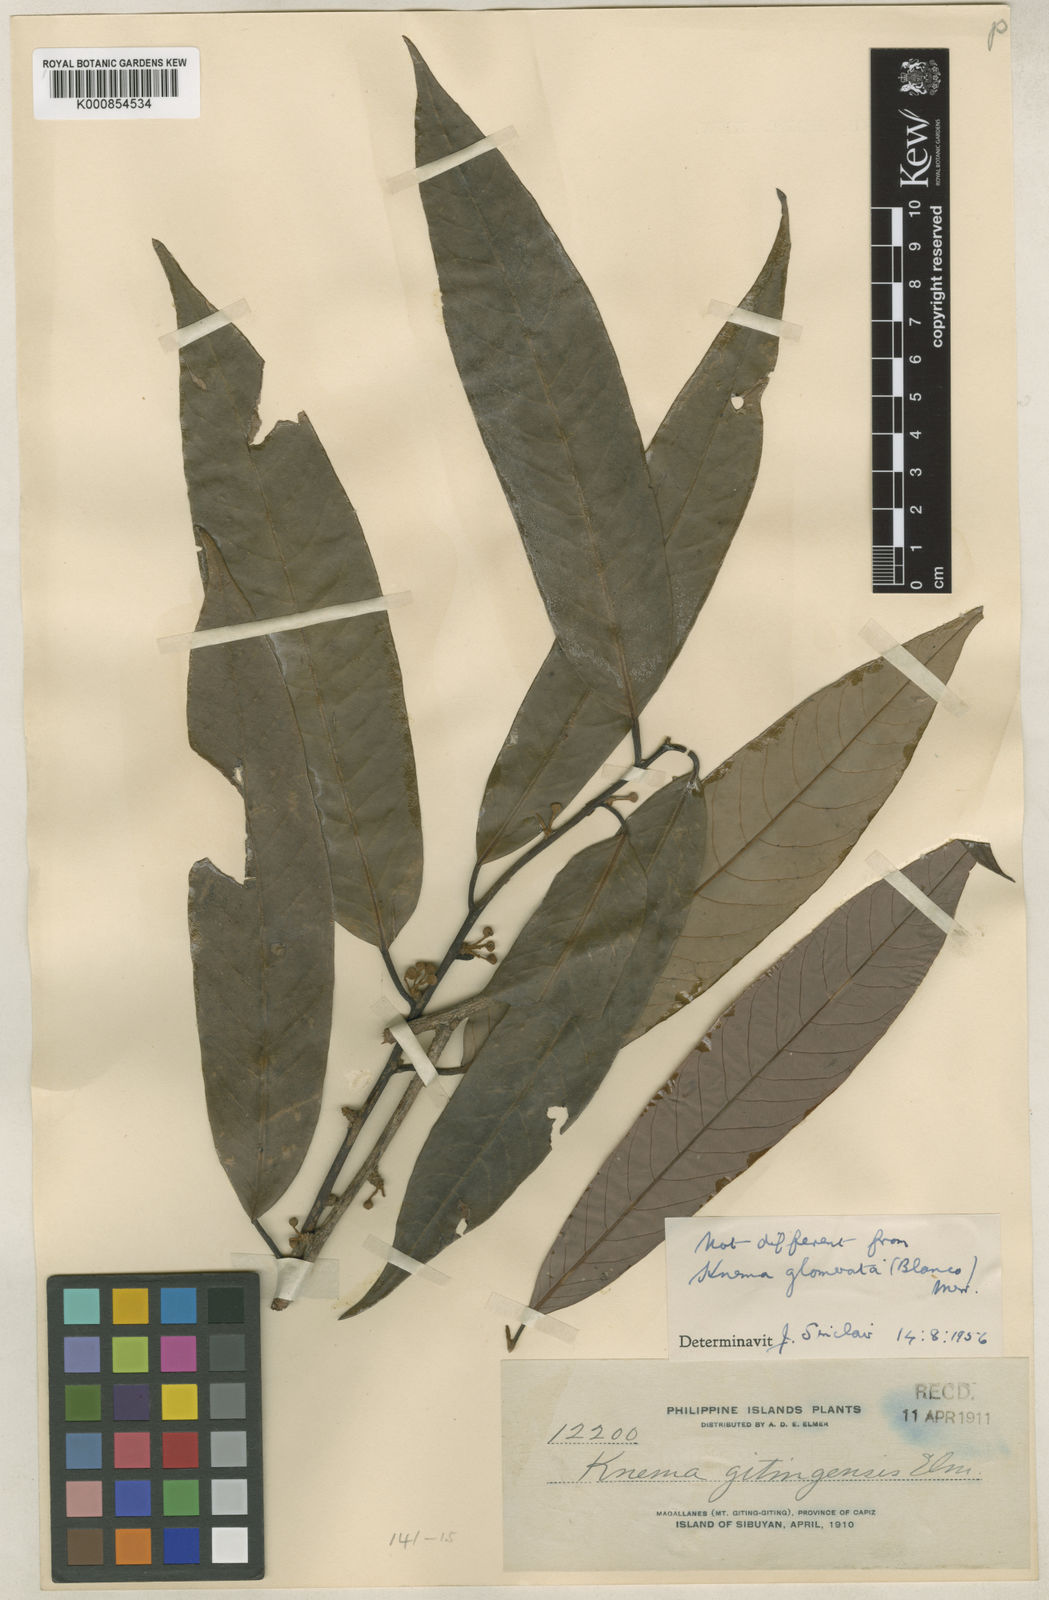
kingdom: Plantae
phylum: Tracheophyta
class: Magnoliopsida
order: Magnoliales
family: Myristicaceae
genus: Knema
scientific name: Knema glomerata
